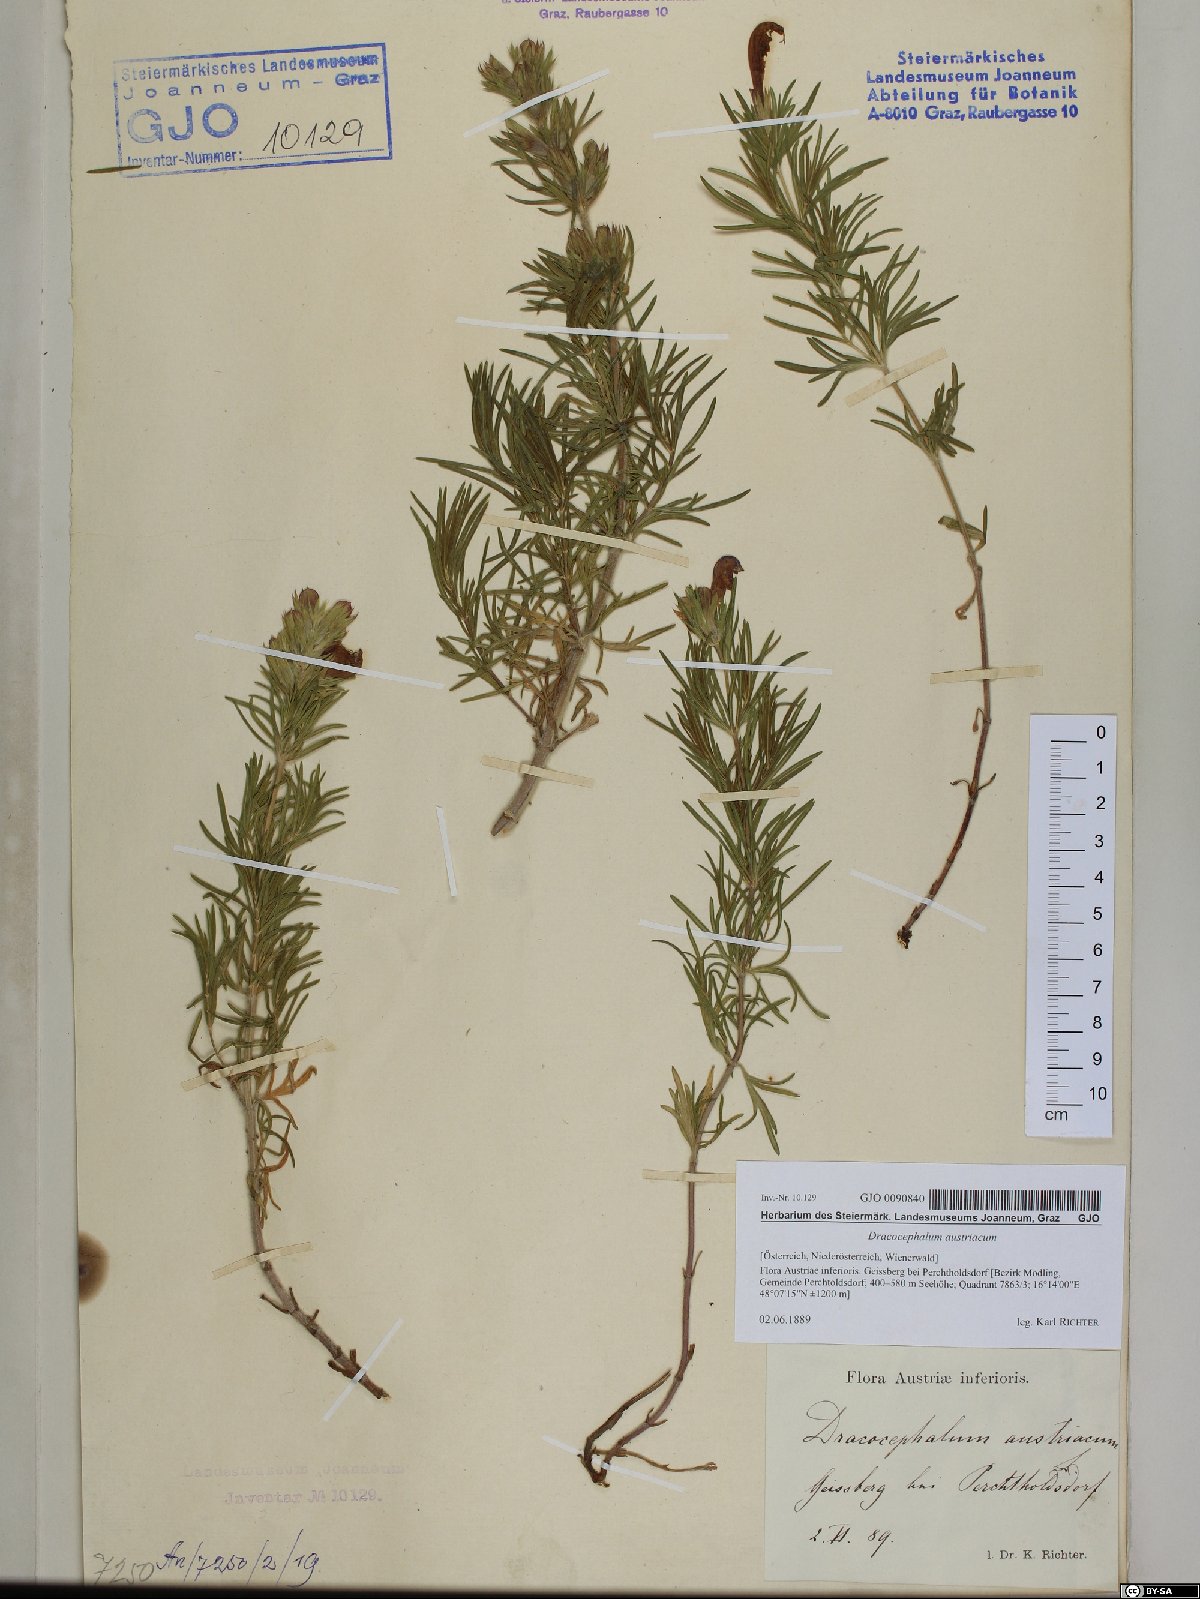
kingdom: Plantae
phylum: Tracheophyta
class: Magnoliopsida
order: Lamiales
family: Lamiaceae
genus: Dracocephalum
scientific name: Dracocephalum austriacum
